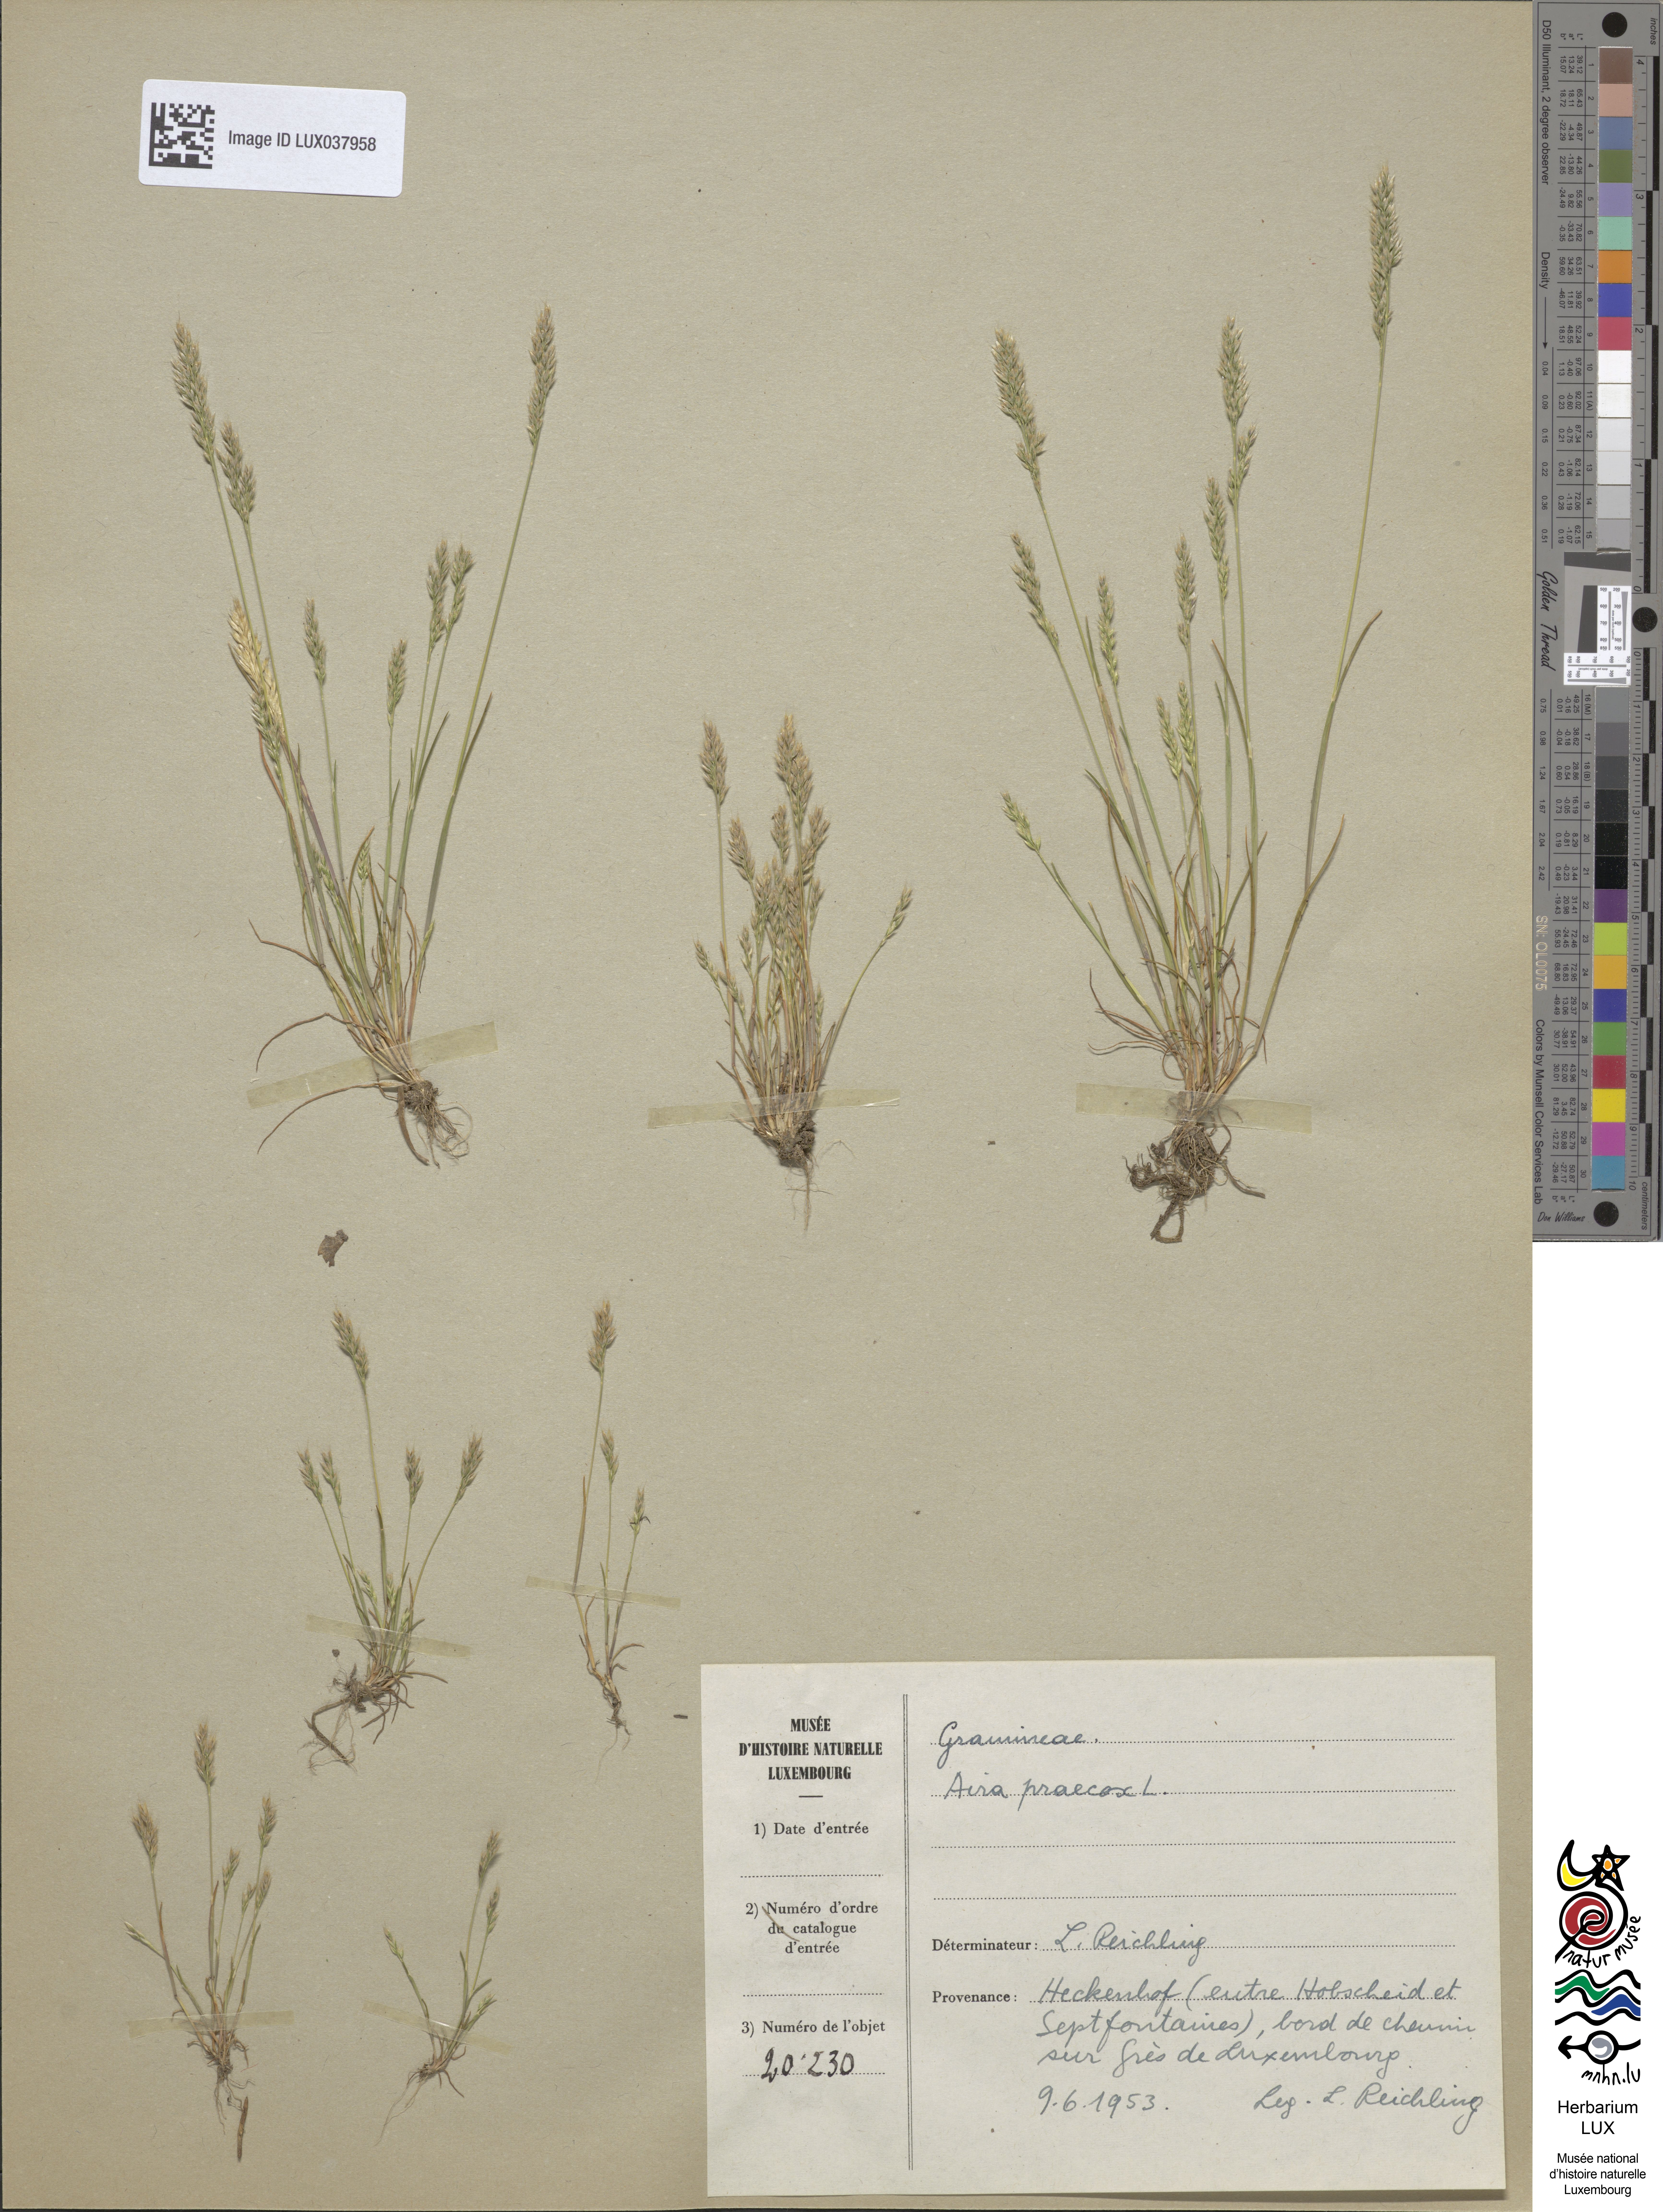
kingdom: Plantae
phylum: Tracheophyta
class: Liliopsida
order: Poales
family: Poaceae
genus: Aira
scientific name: Aira praecox
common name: Early hair-grass
